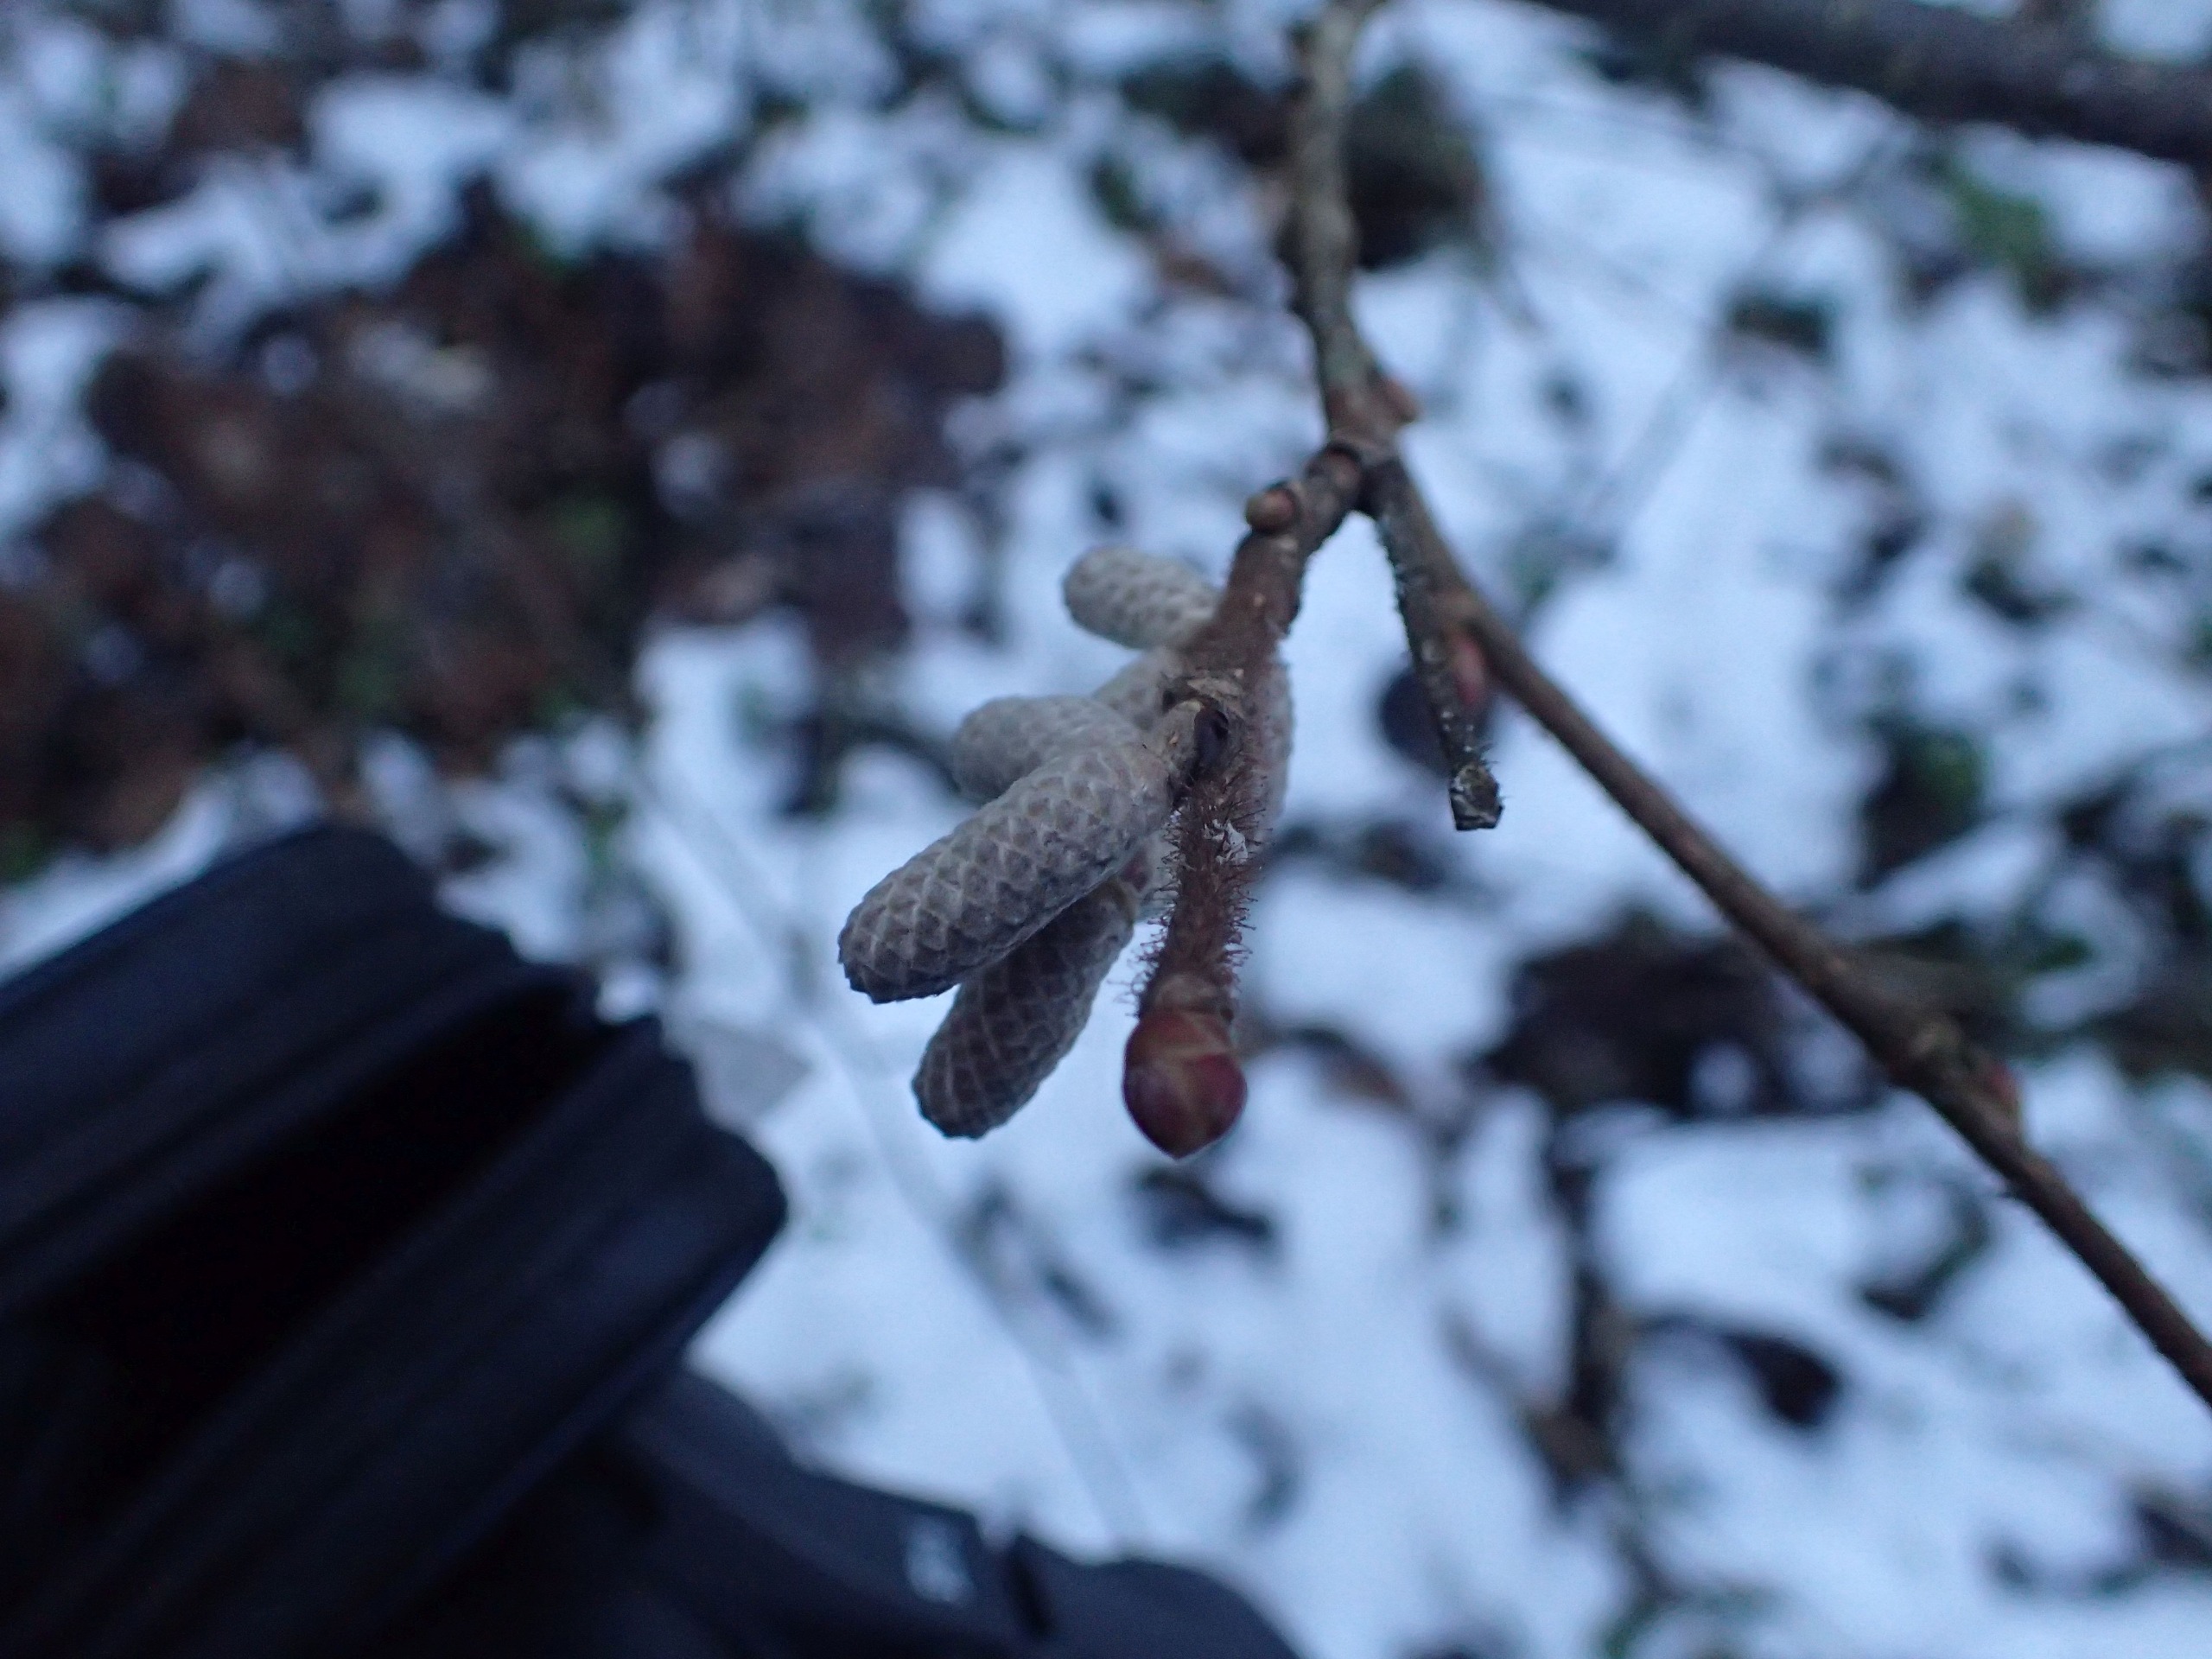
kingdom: Plantae
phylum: Tracheophyta
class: Magnoliopsida
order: Fagales
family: Betulaceae
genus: Corylus
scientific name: Corylus avellana
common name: Hassel
